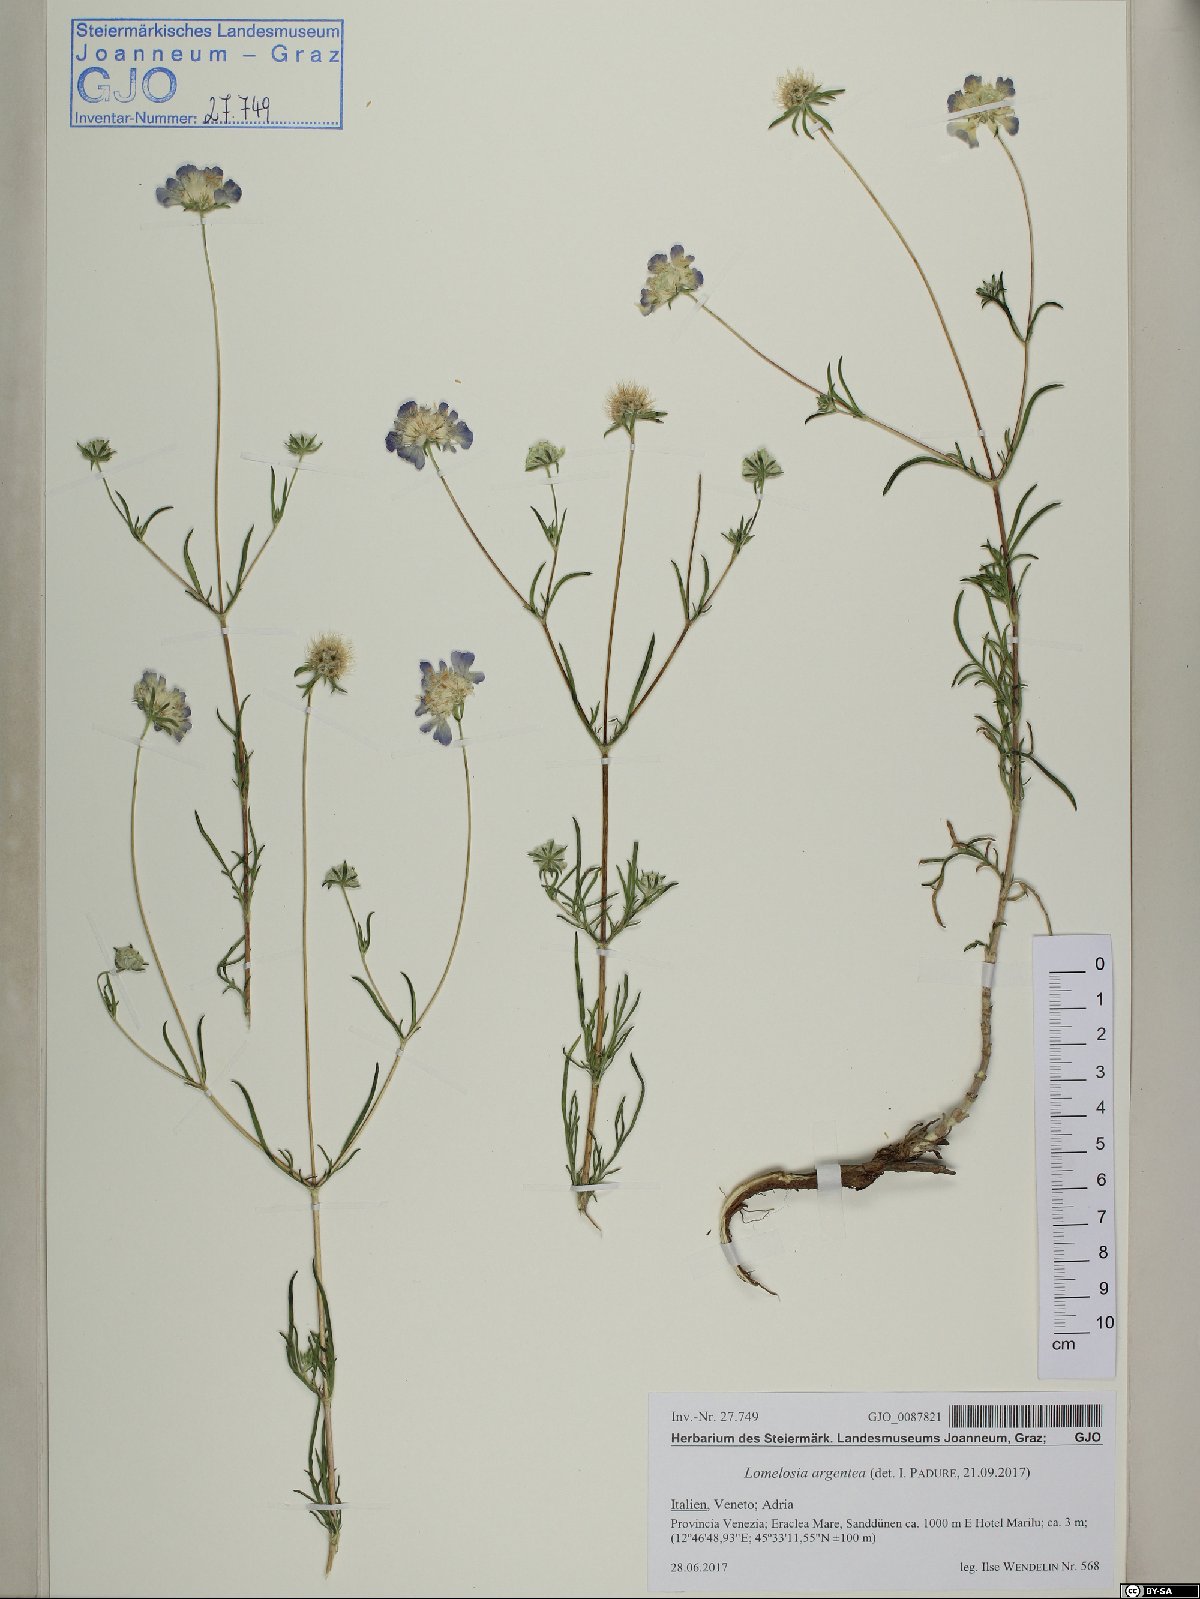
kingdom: Plantae
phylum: Tracheophyta
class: Magnoliopsida
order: Dipsacales
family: Caprifoliaceae
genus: Lomelosia
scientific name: Lomelosia argentea
